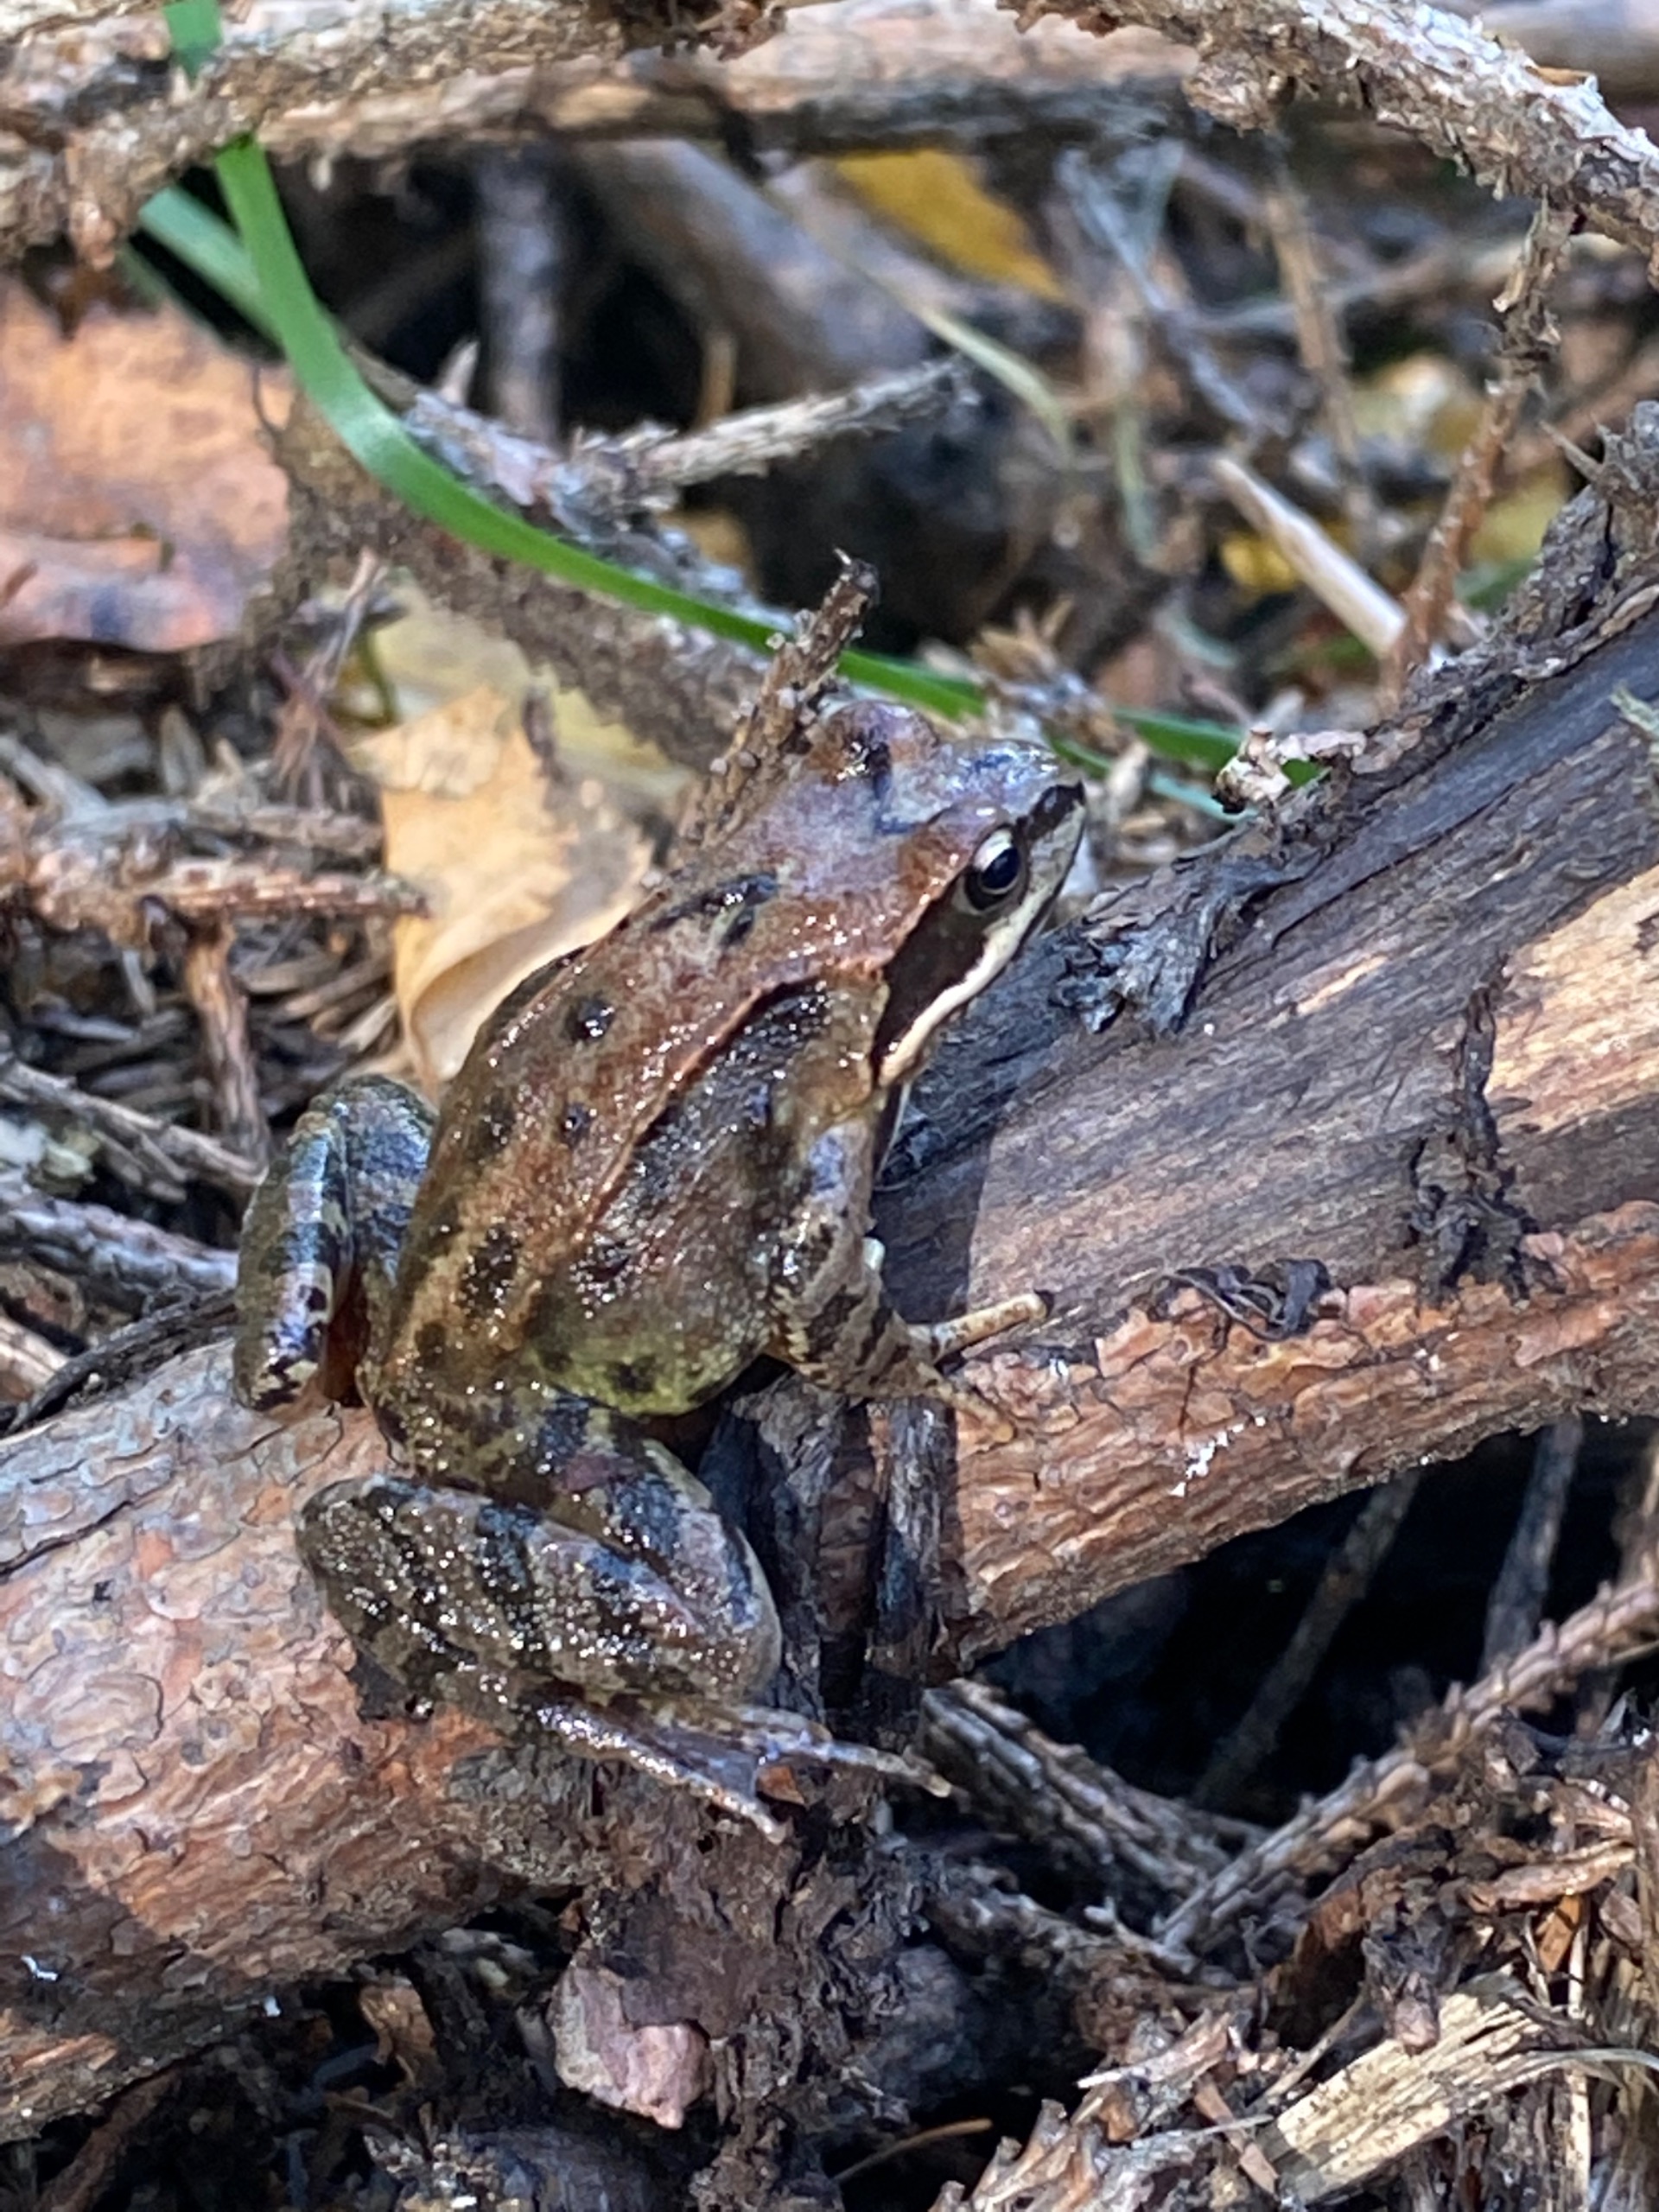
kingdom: Animalia
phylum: Chordata
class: Amphibia
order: Anura
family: Ranidae
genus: Rana
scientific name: Rana temporaria
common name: Butsnudet frø
